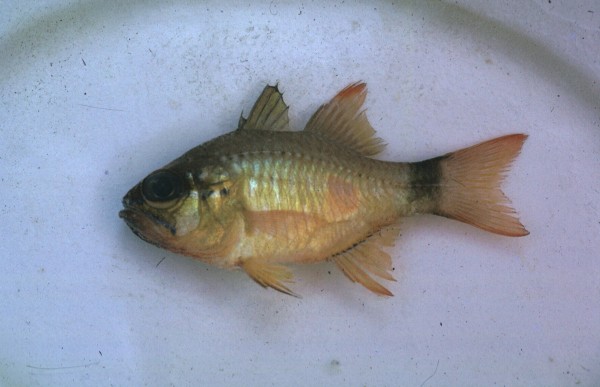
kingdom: Animalia
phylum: Chordata
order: Perciformes
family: Apogonidae
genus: Ostorhinchus
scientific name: Ostorhinchus aureus
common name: Ring-tailed cardinalfish
